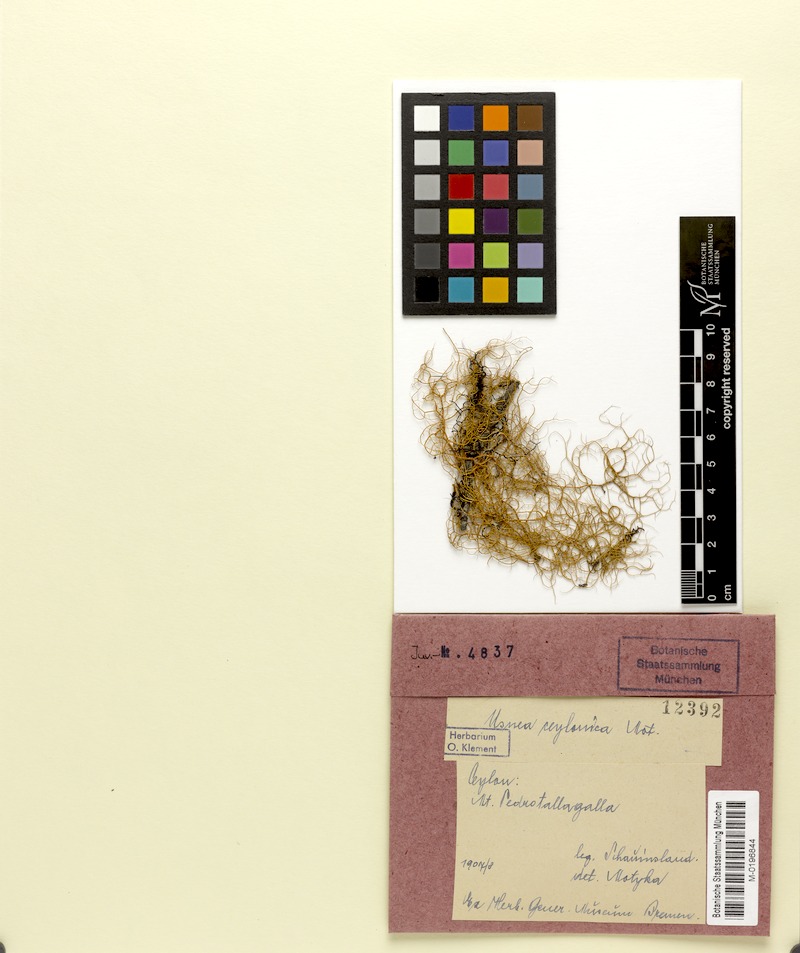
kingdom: Fungi
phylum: Ascomycota
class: Lecanoromycetes
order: Lecanorales
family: Parmeliaceae
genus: Usnea
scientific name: Usnea
